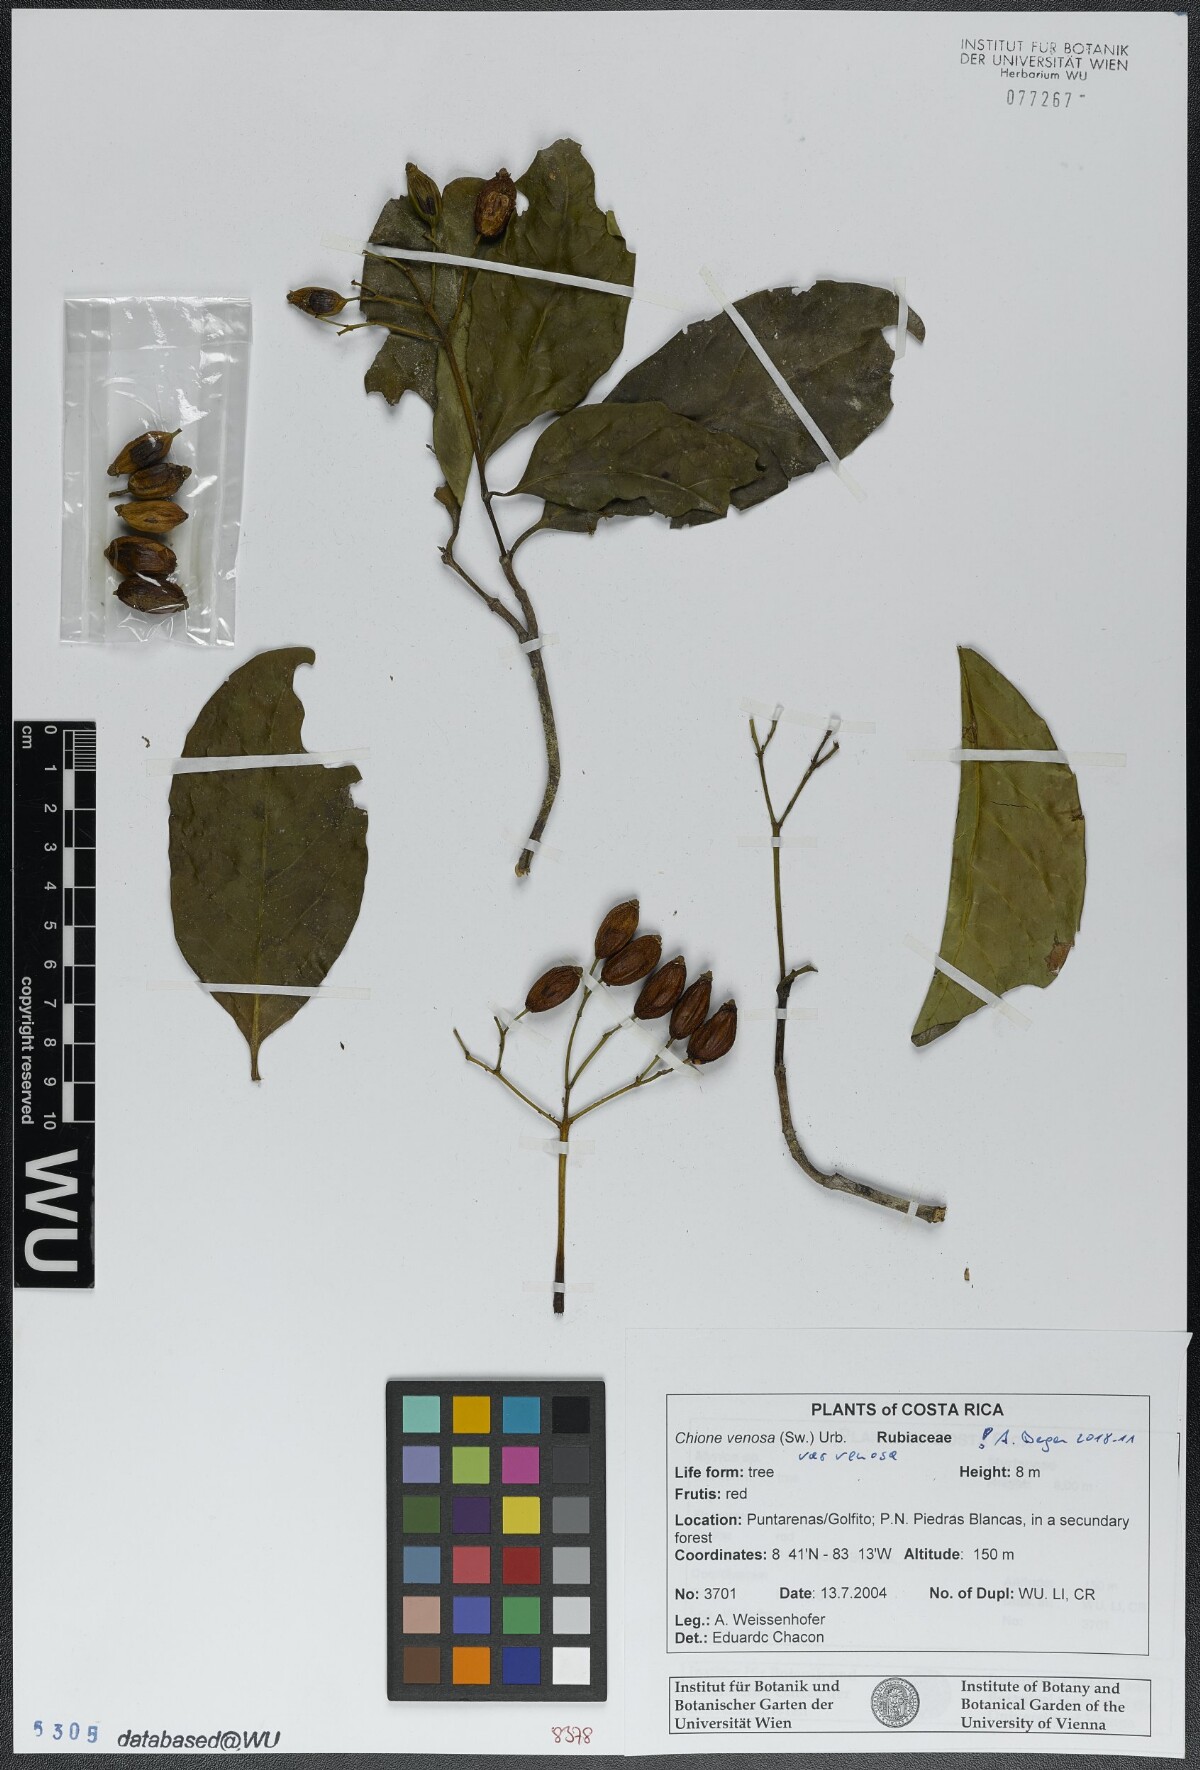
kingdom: Plantae
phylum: Tracheophyta
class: Magnoliopsida
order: Gentianales
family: Rubiaceae
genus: Chione
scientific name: Chione venosa
